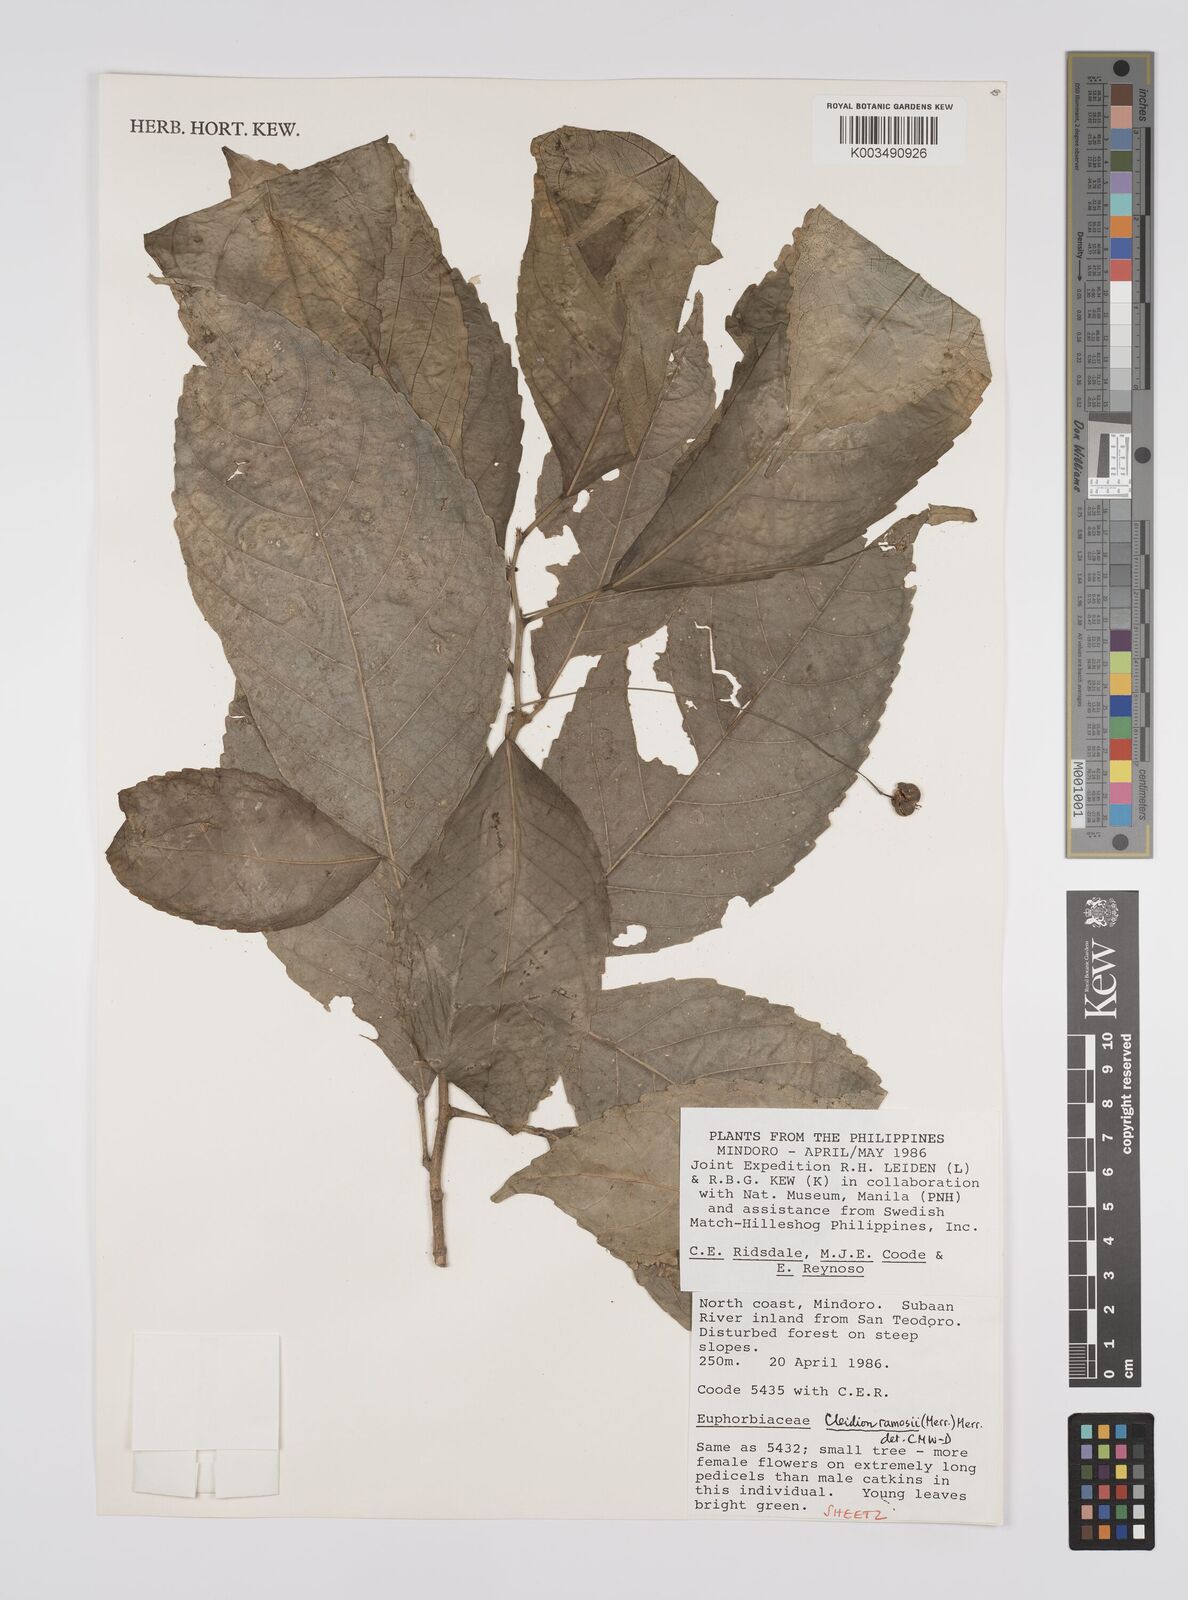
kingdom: Plantae
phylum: Tracheophyta
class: Magnoliopsida
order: Malpighiales
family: Euphorbiaceae
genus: Cleidion
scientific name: Cleidion ramosii
